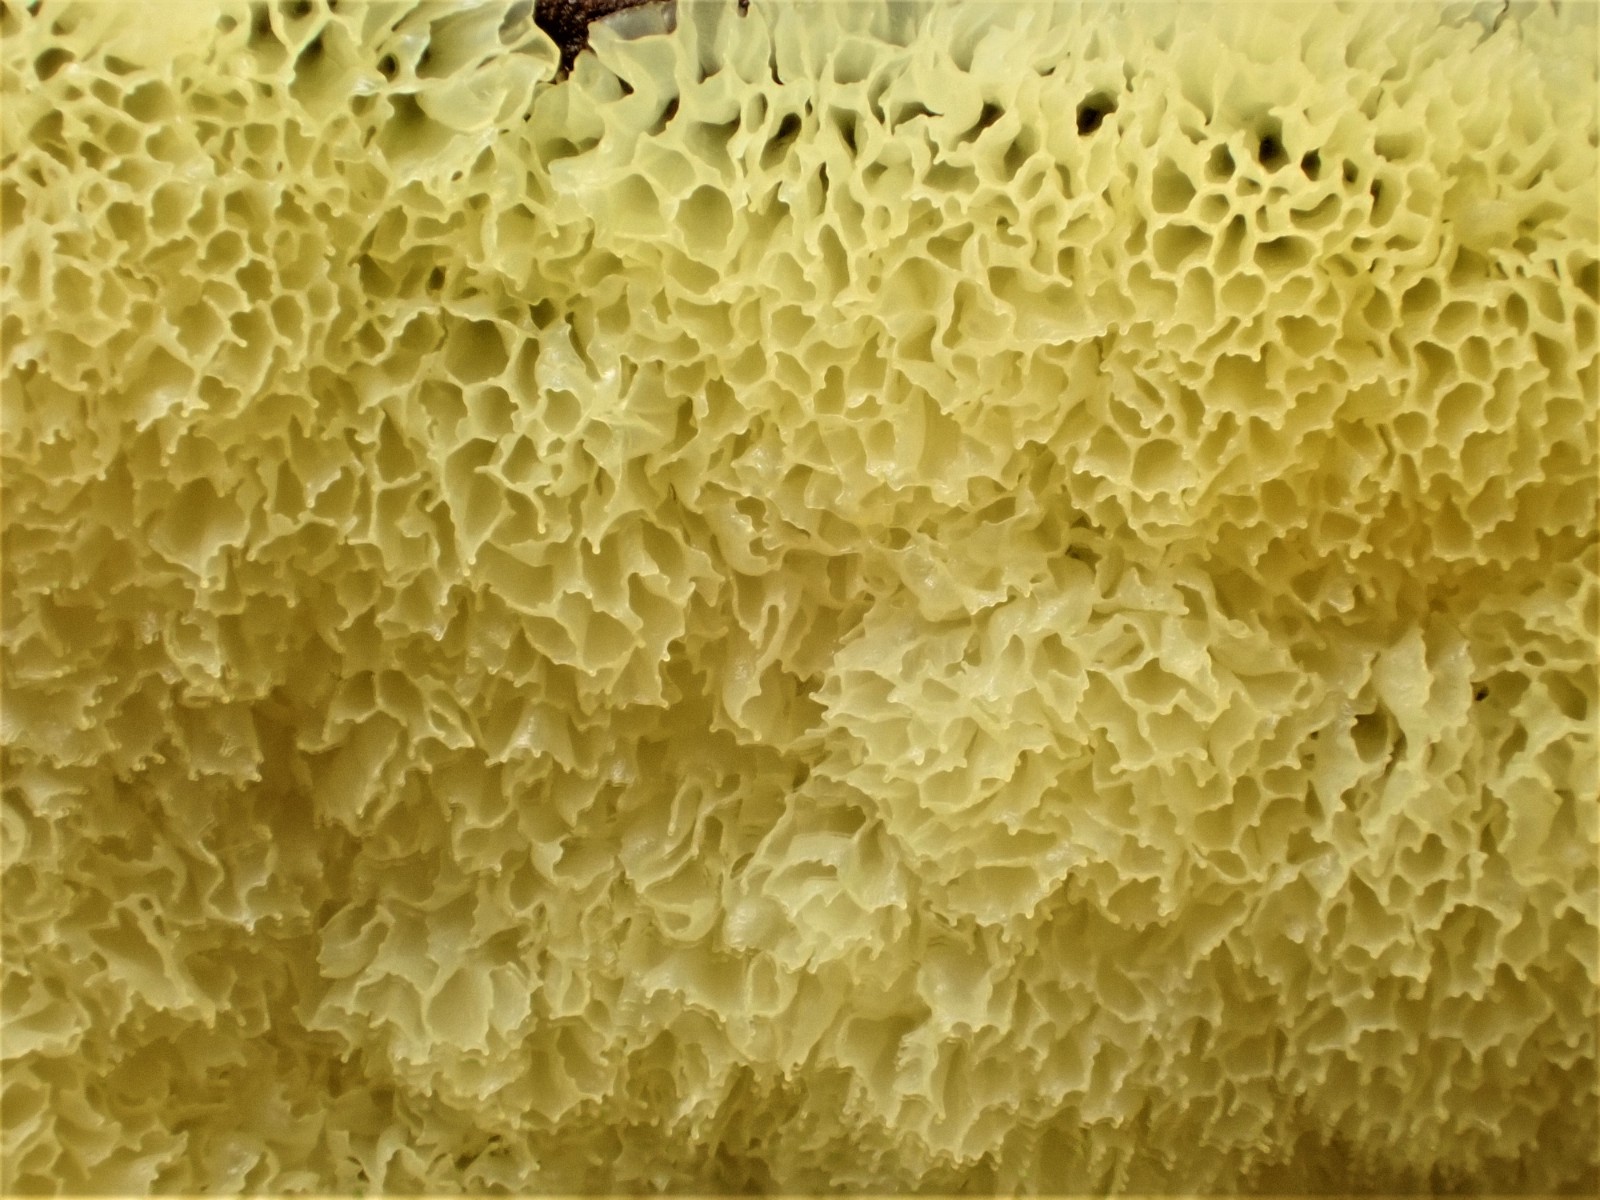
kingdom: Protozoa
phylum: Mycetozoa
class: Protosteliomycetes
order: Ceratiomyxales
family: Ceratiomyxaceae
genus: Ceratiomyxa
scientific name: Ceratiomyxa fruticulosa
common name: Honeycomb coral slime mold
